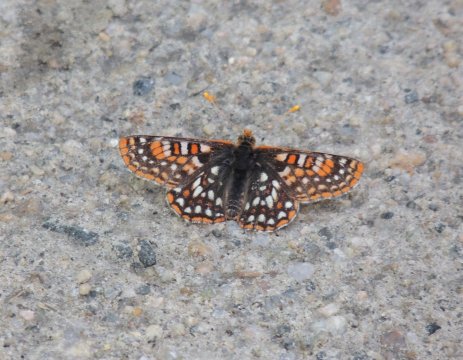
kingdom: Animalia
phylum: Arthropoda
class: Insecta
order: Lepidoptera
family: Nymphalidae
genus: Occidryas
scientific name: Occidryas anicia
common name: Anicia Checkerspot
